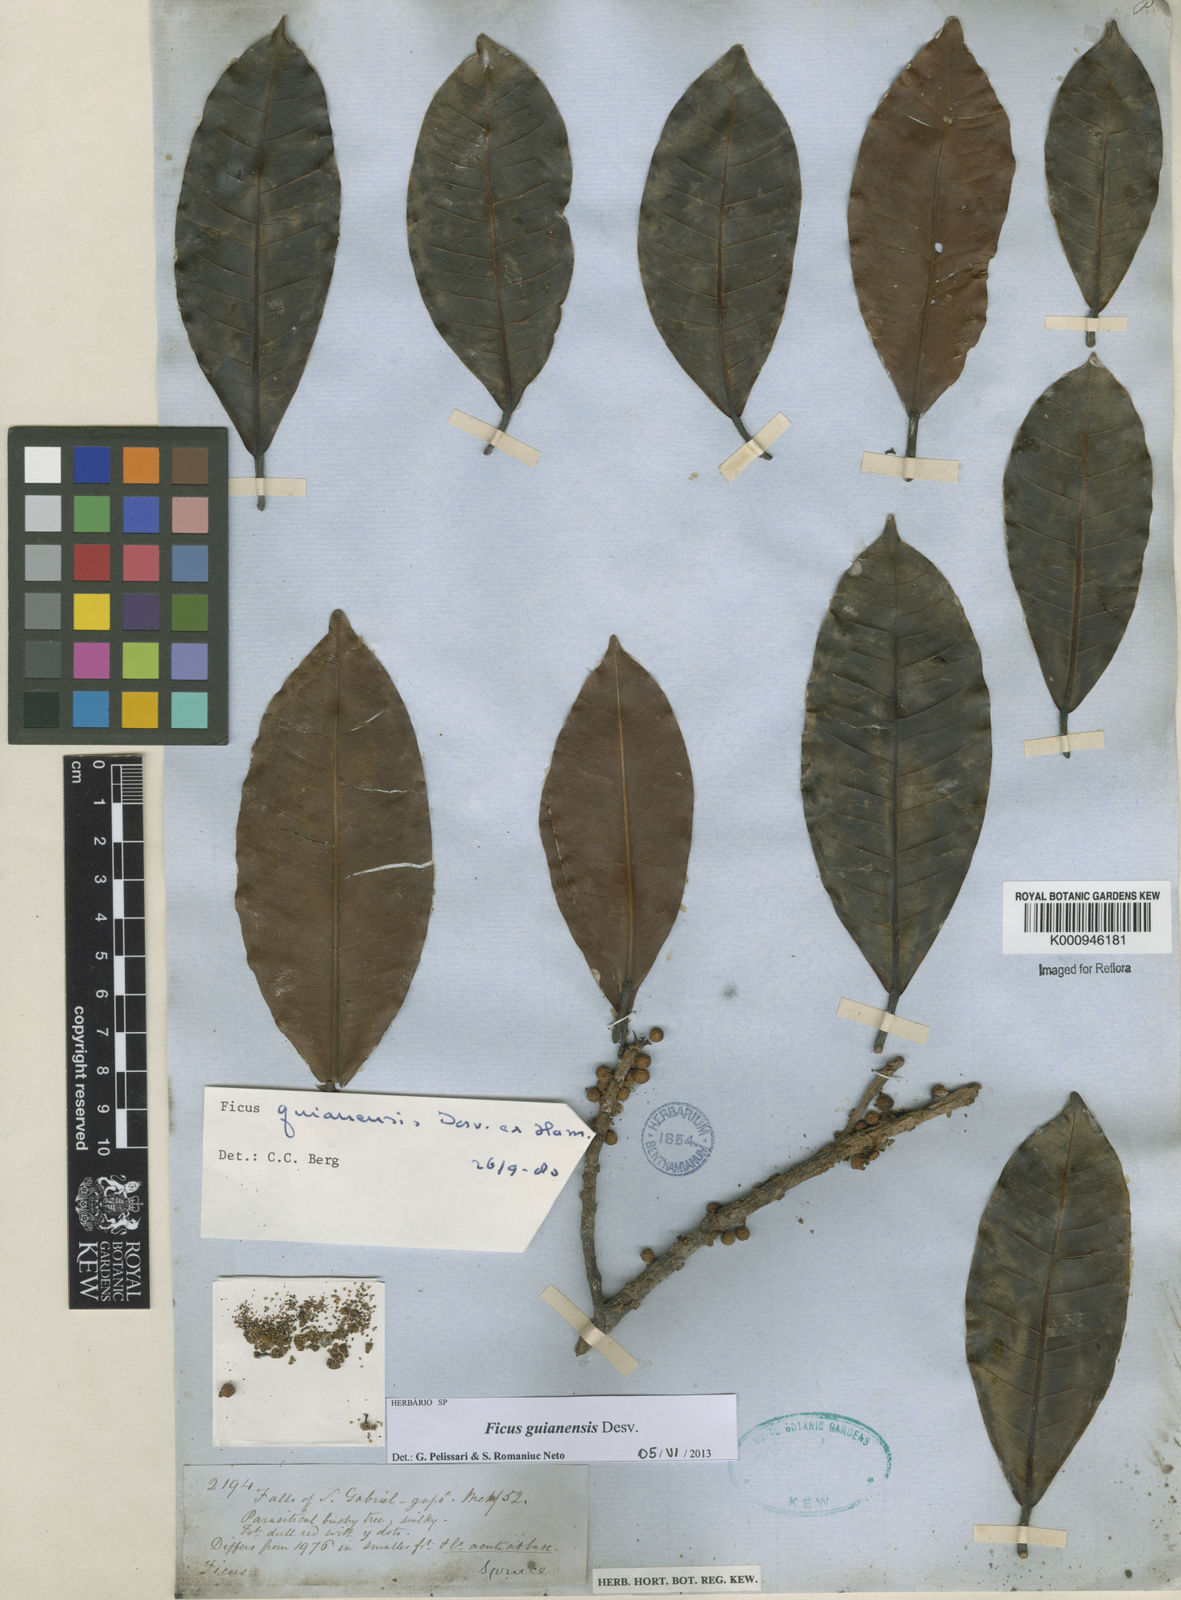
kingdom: Plantae
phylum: Tracheophyta
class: Magnoliopsida
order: Rosales
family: Moraceae
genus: Ficus
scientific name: Ficus americana
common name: Jamaican cherry fig
